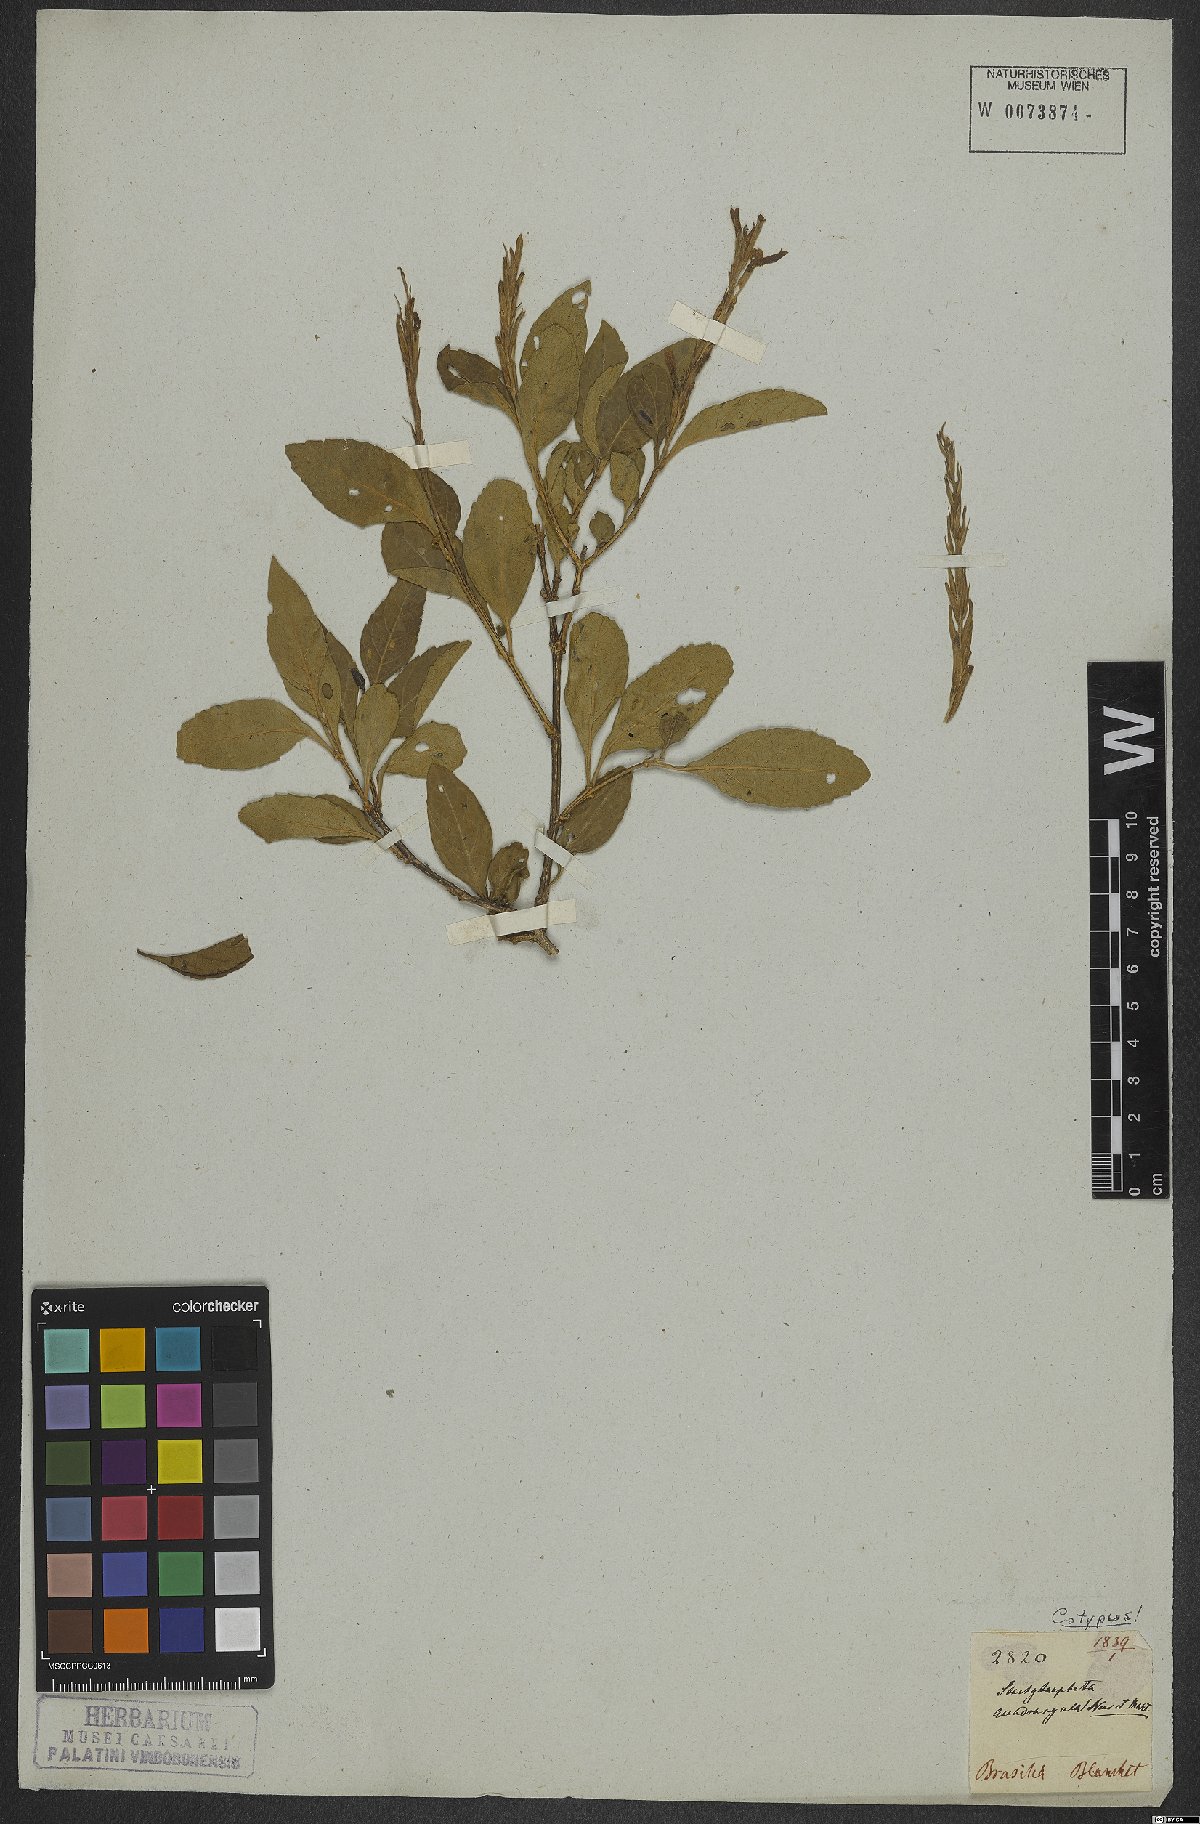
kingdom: Plantae
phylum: Tracheophyta
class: Magnoliopsida
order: Lamiales
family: Verbenaceae
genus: Stachytarpheta
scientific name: Stachytarpheta quadrangula
